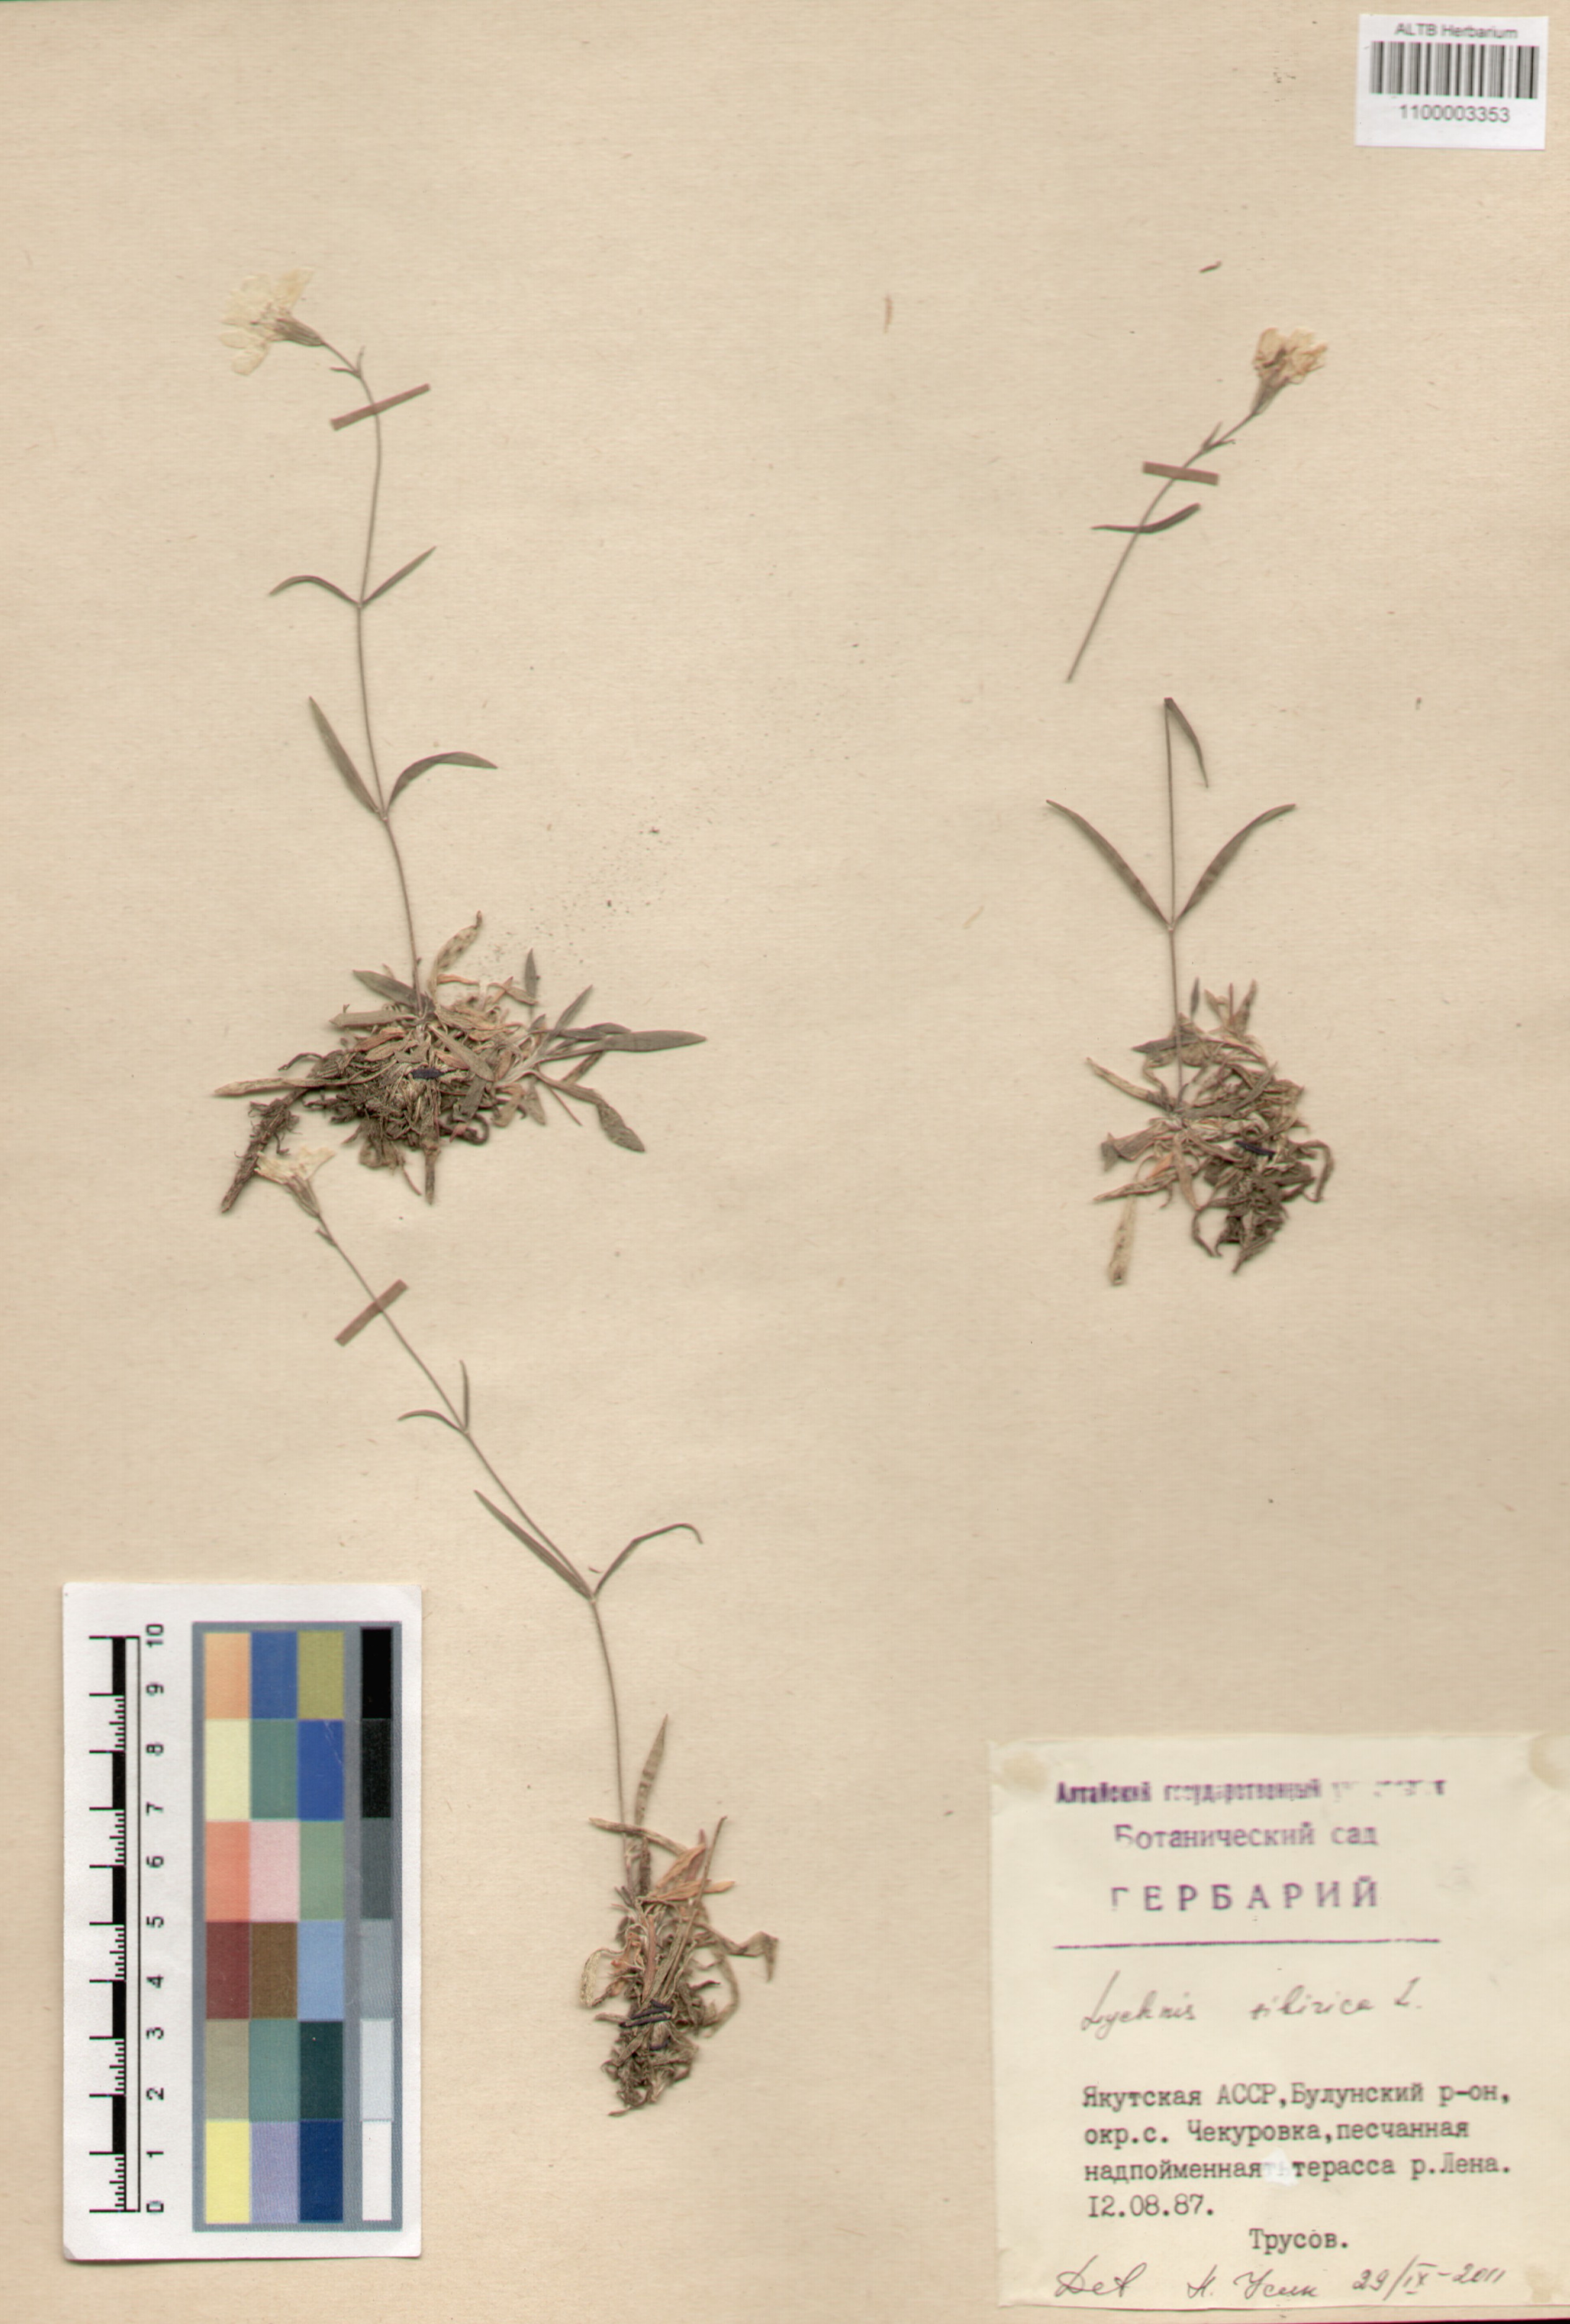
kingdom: Plantae
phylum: Tracheophyta
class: Magnoliopsida
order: Caryophyllales
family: Caryophyllaceae
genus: Silene
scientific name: Silene orientalimongolica
